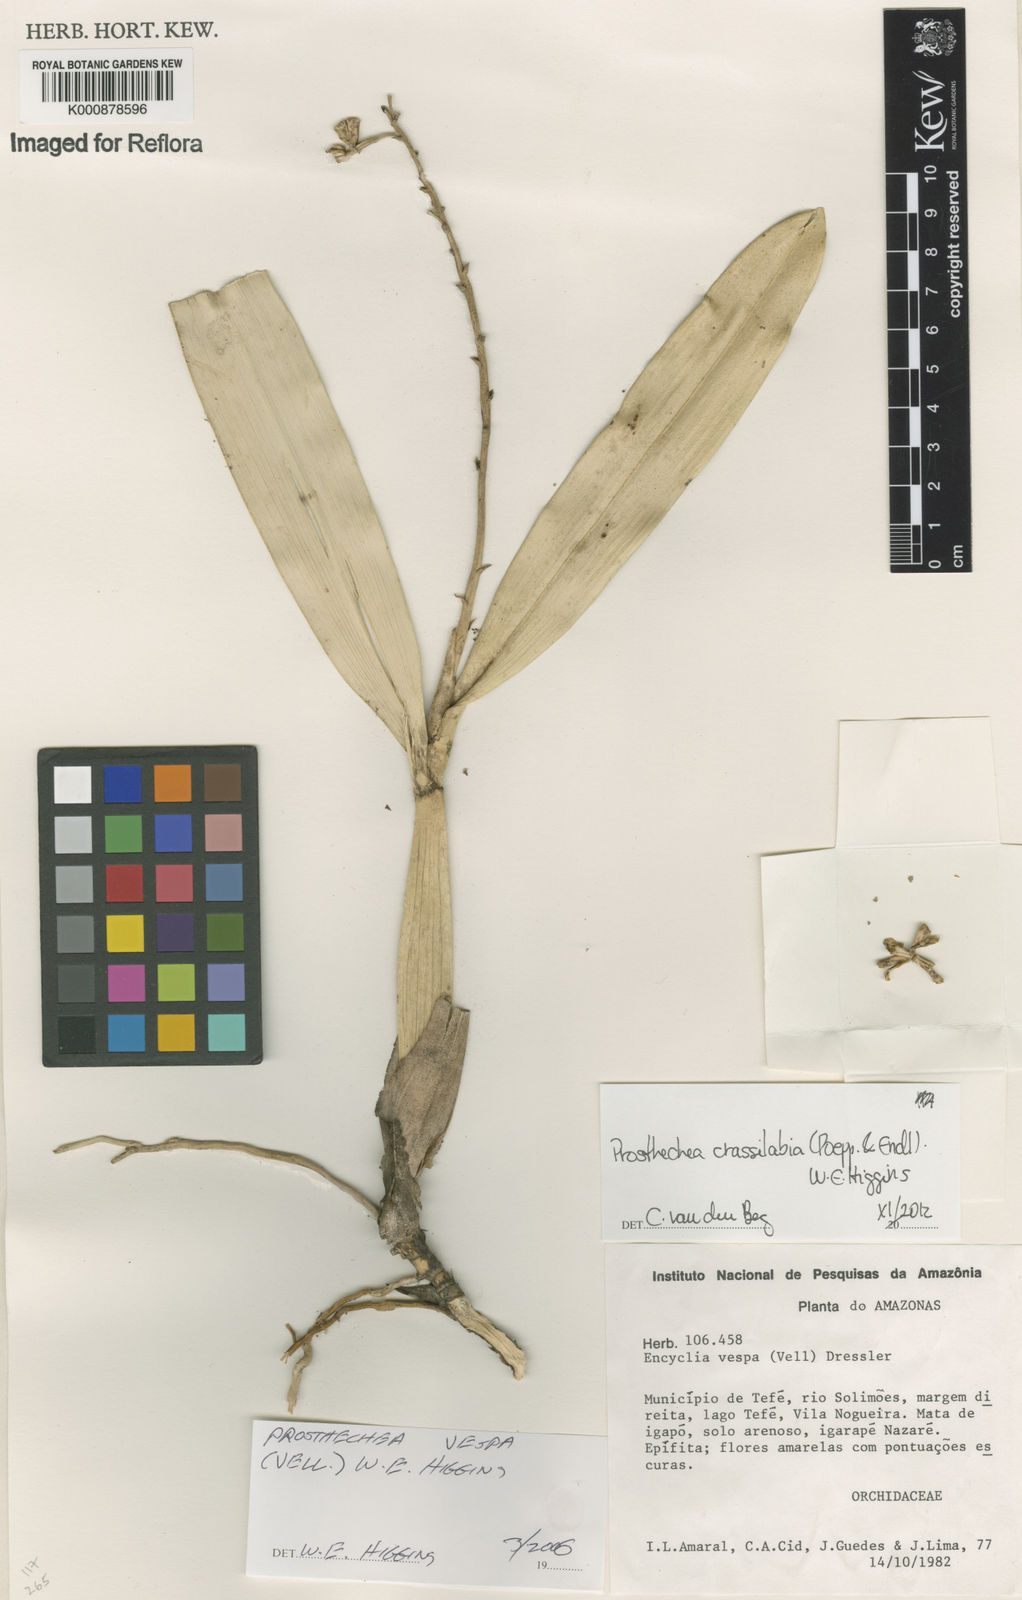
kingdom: Plantae
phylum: Tracheophyta
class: Liliopsida
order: Asparagales
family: Orchidaceae
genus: Prosthechea
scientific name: Prosthechea
